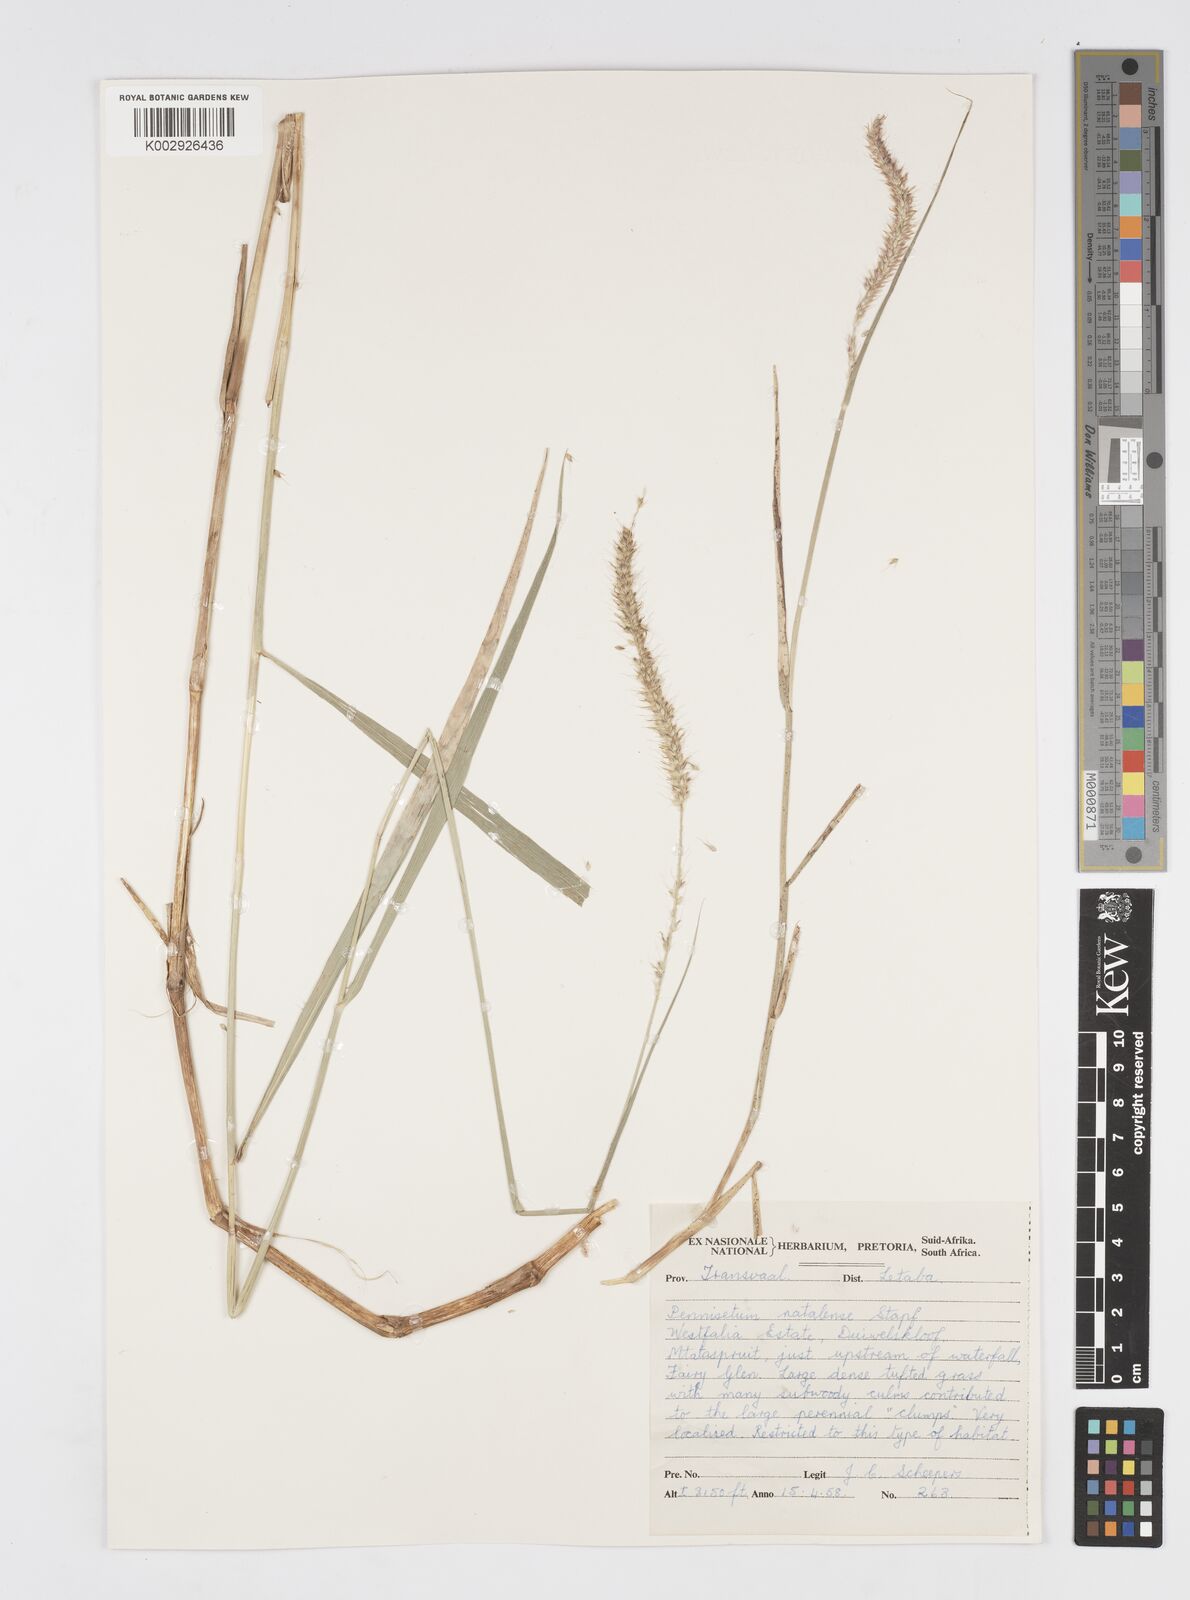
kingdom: Plantae
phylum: Tracheophyta
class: Liliopsida
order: Poales
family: Poaceae
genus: Cenchrus
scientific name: Cenchrus caudatus
